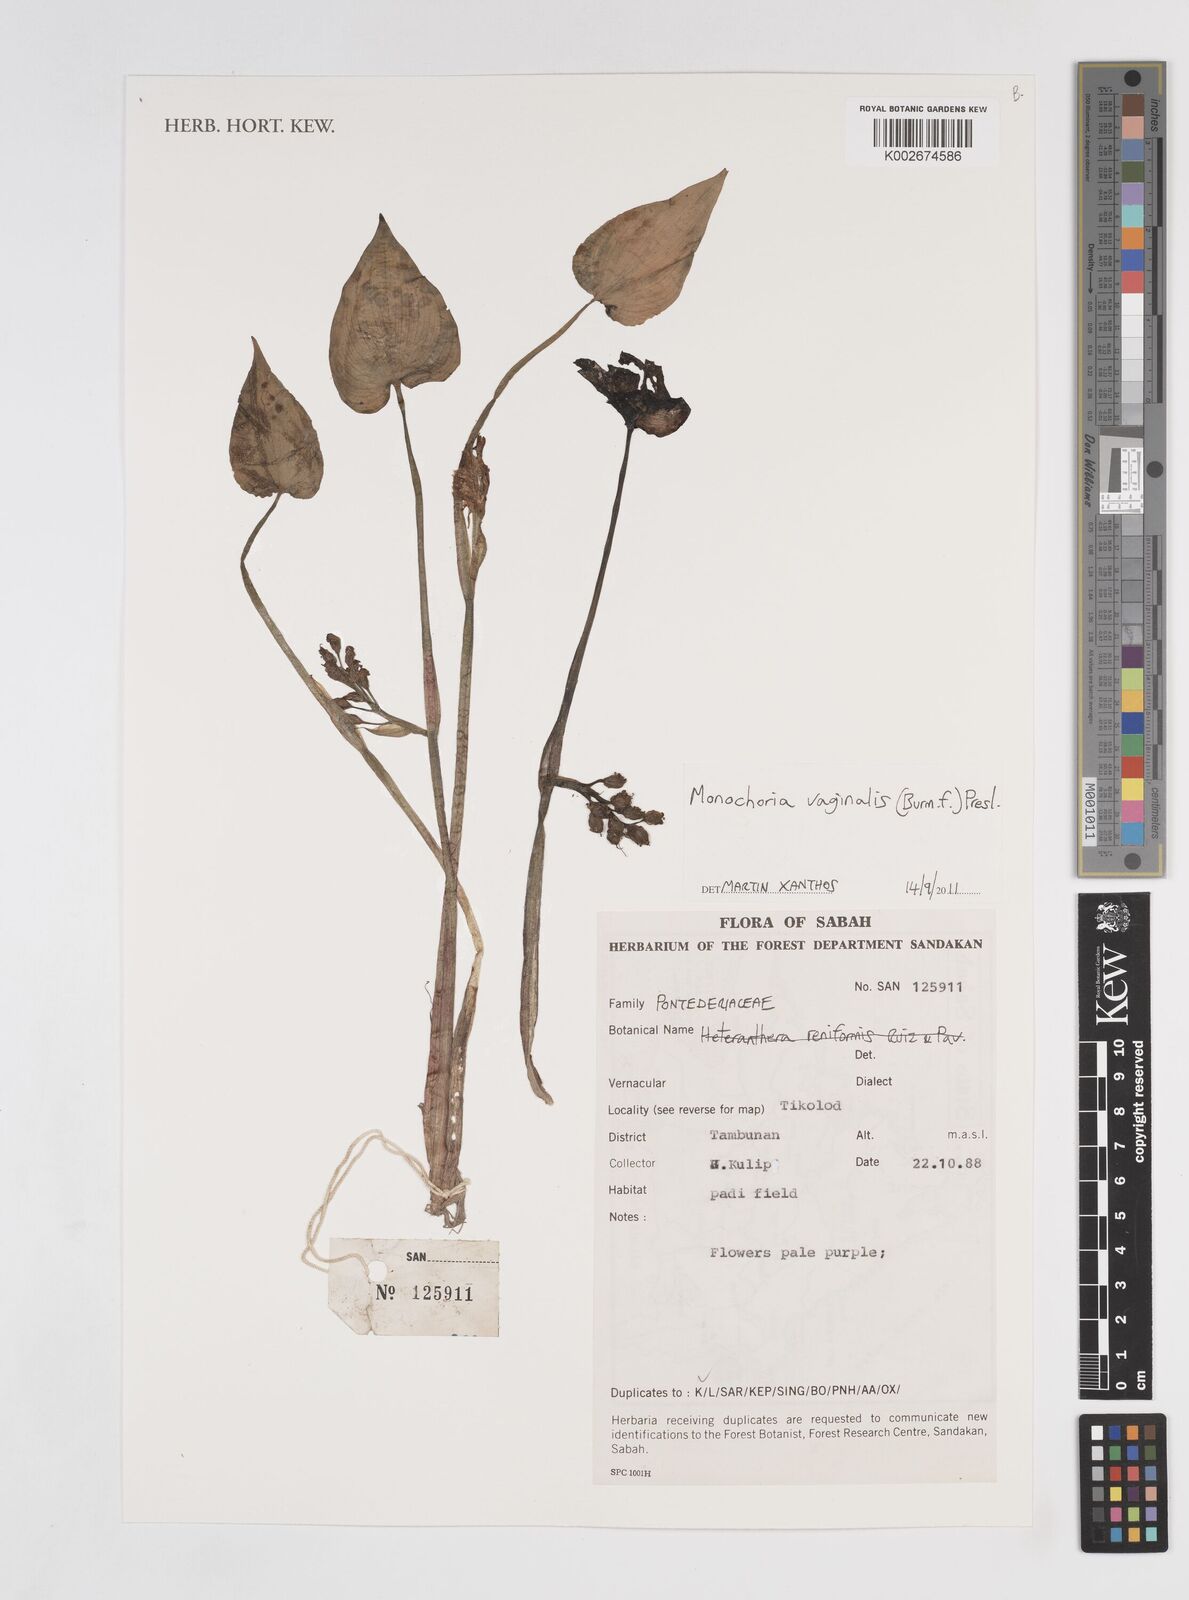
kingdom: Plantae
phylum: Tracheophyta
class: Liliopsida
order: Commelinales
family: Pontederiaceae
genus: Pontederia
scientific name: Pontederia vaginalis
